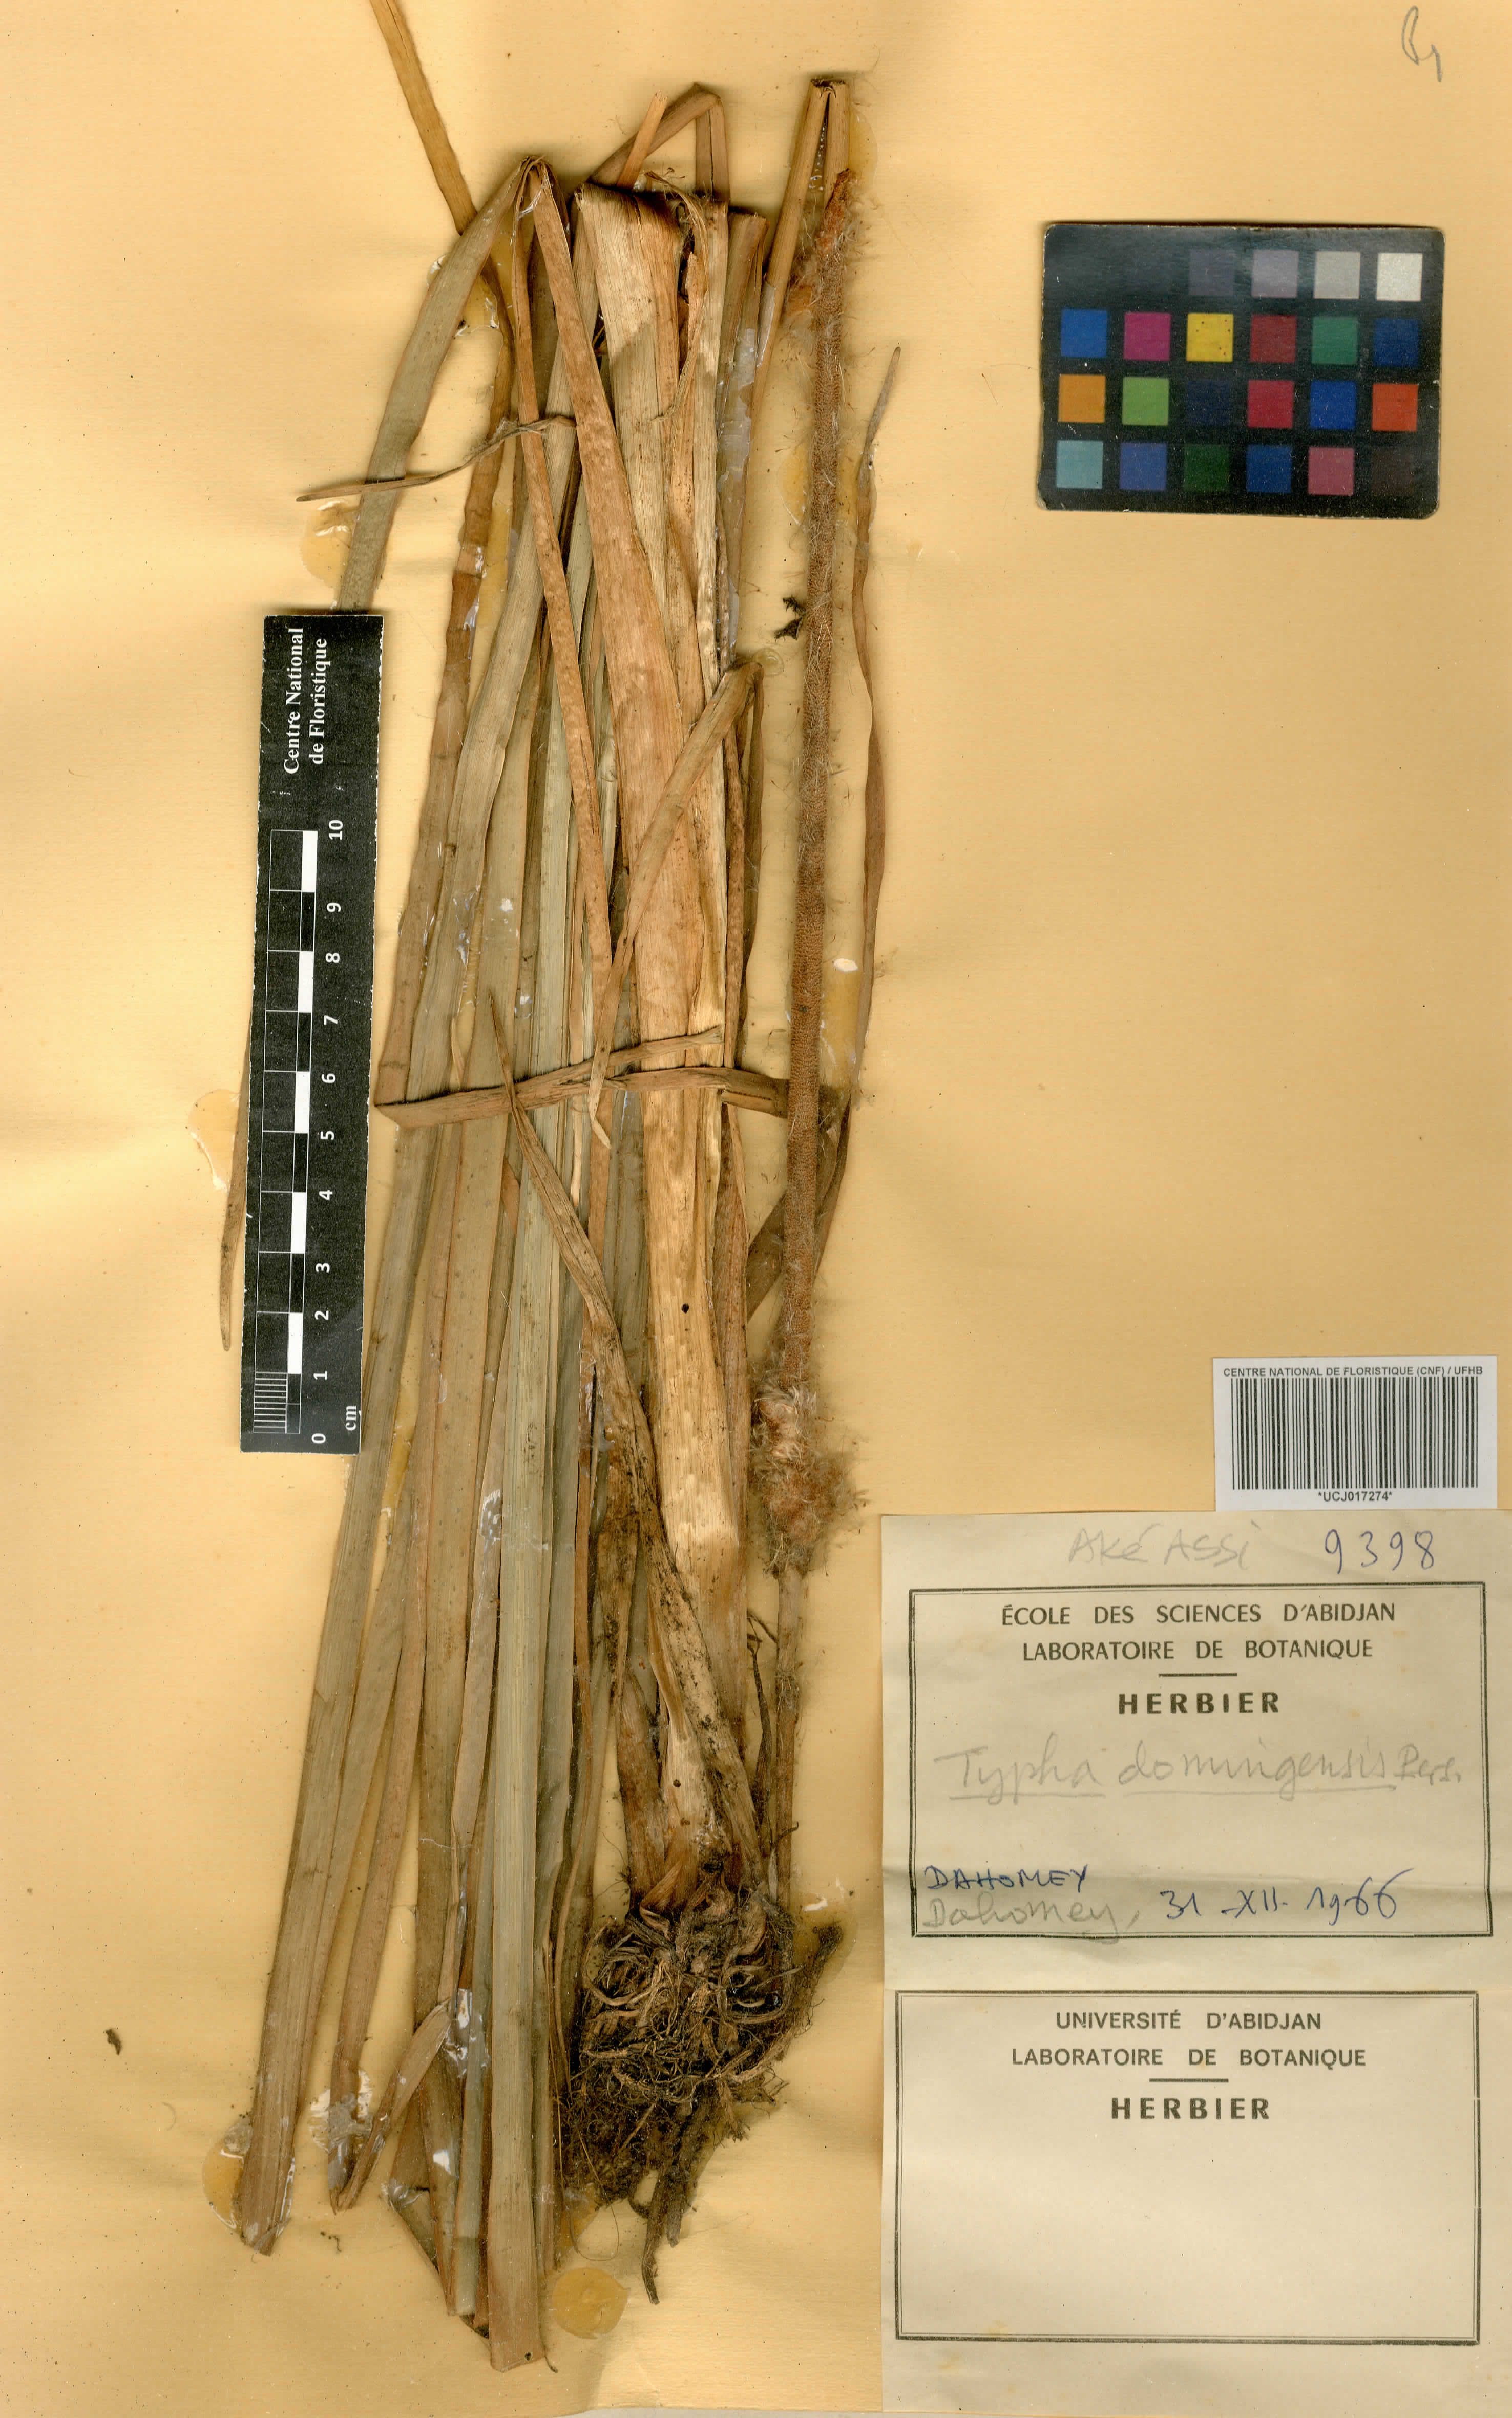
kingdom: Plantae
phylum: Tracheophyta
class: Liliopsida
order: Poales
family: Typhaceae
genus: Typha
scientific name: Typha domingensis
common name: Southern cattail
